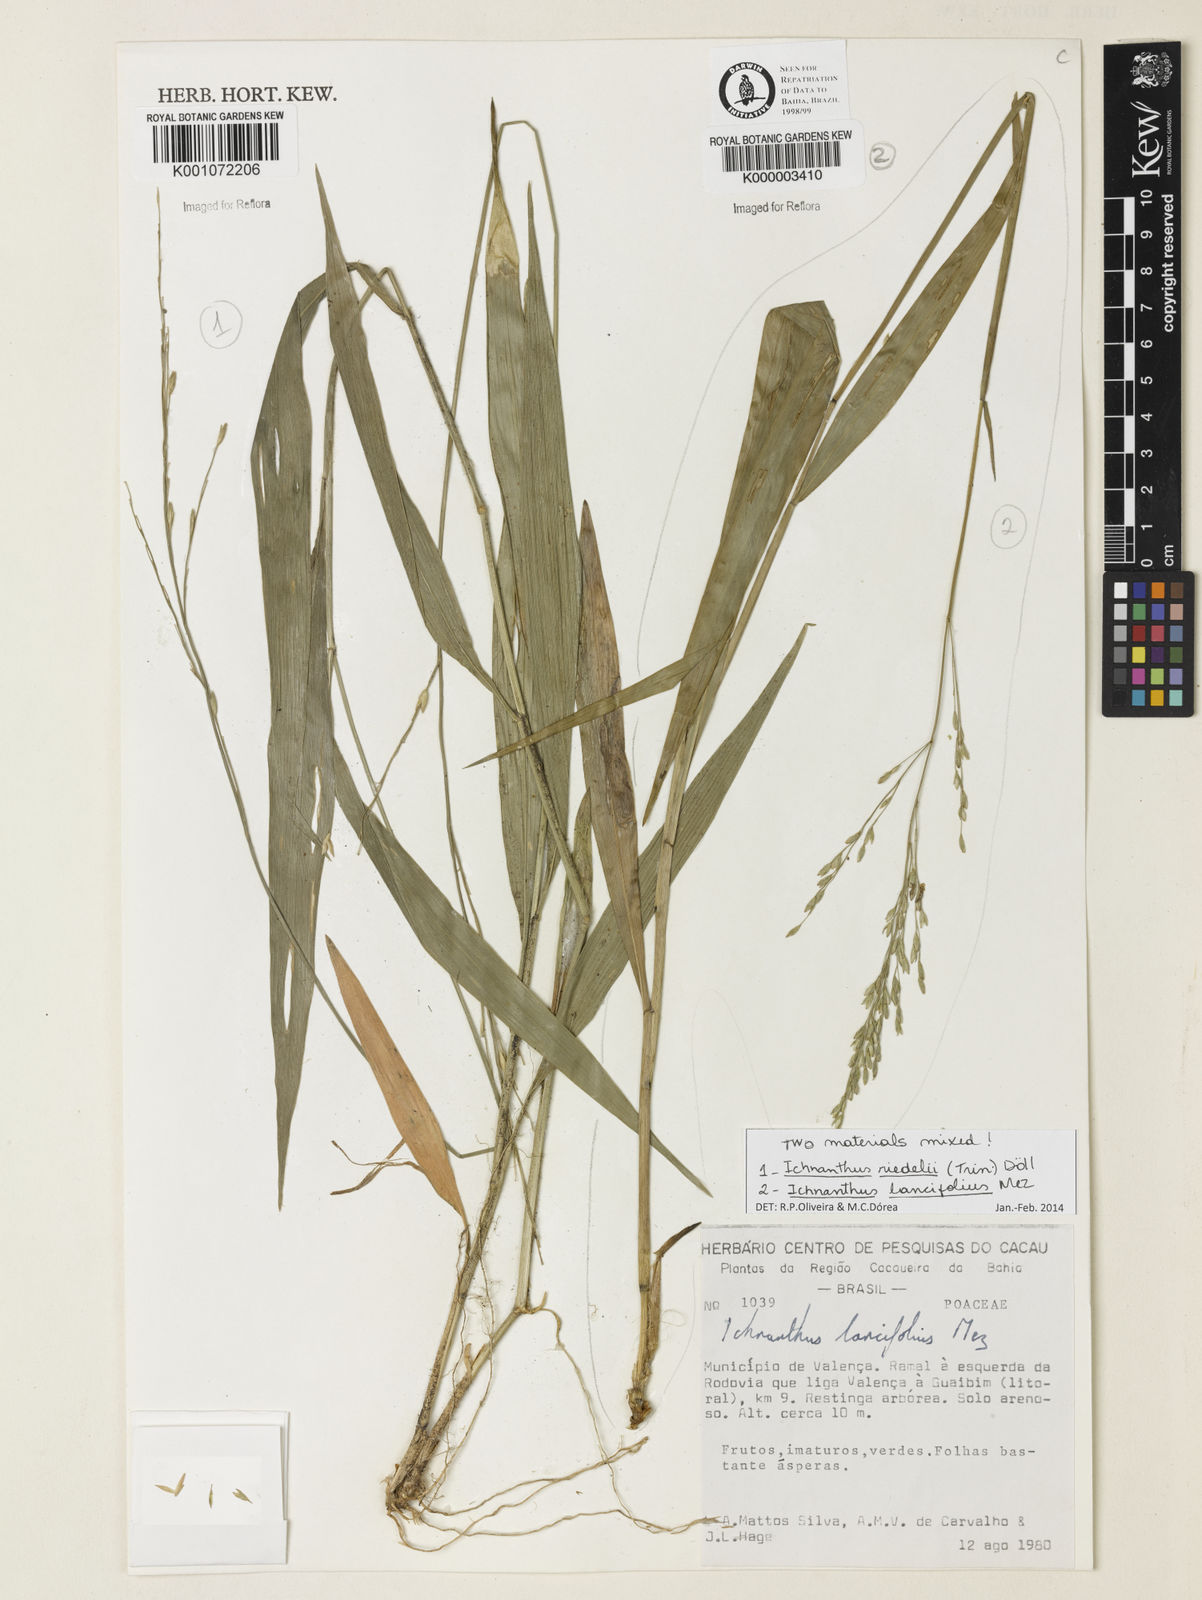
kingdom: Plantae
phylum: Tracheophyta
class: Liliopsida
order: Poales
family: Poaceae
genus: Ichnanthus
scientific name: Ichnanthus
